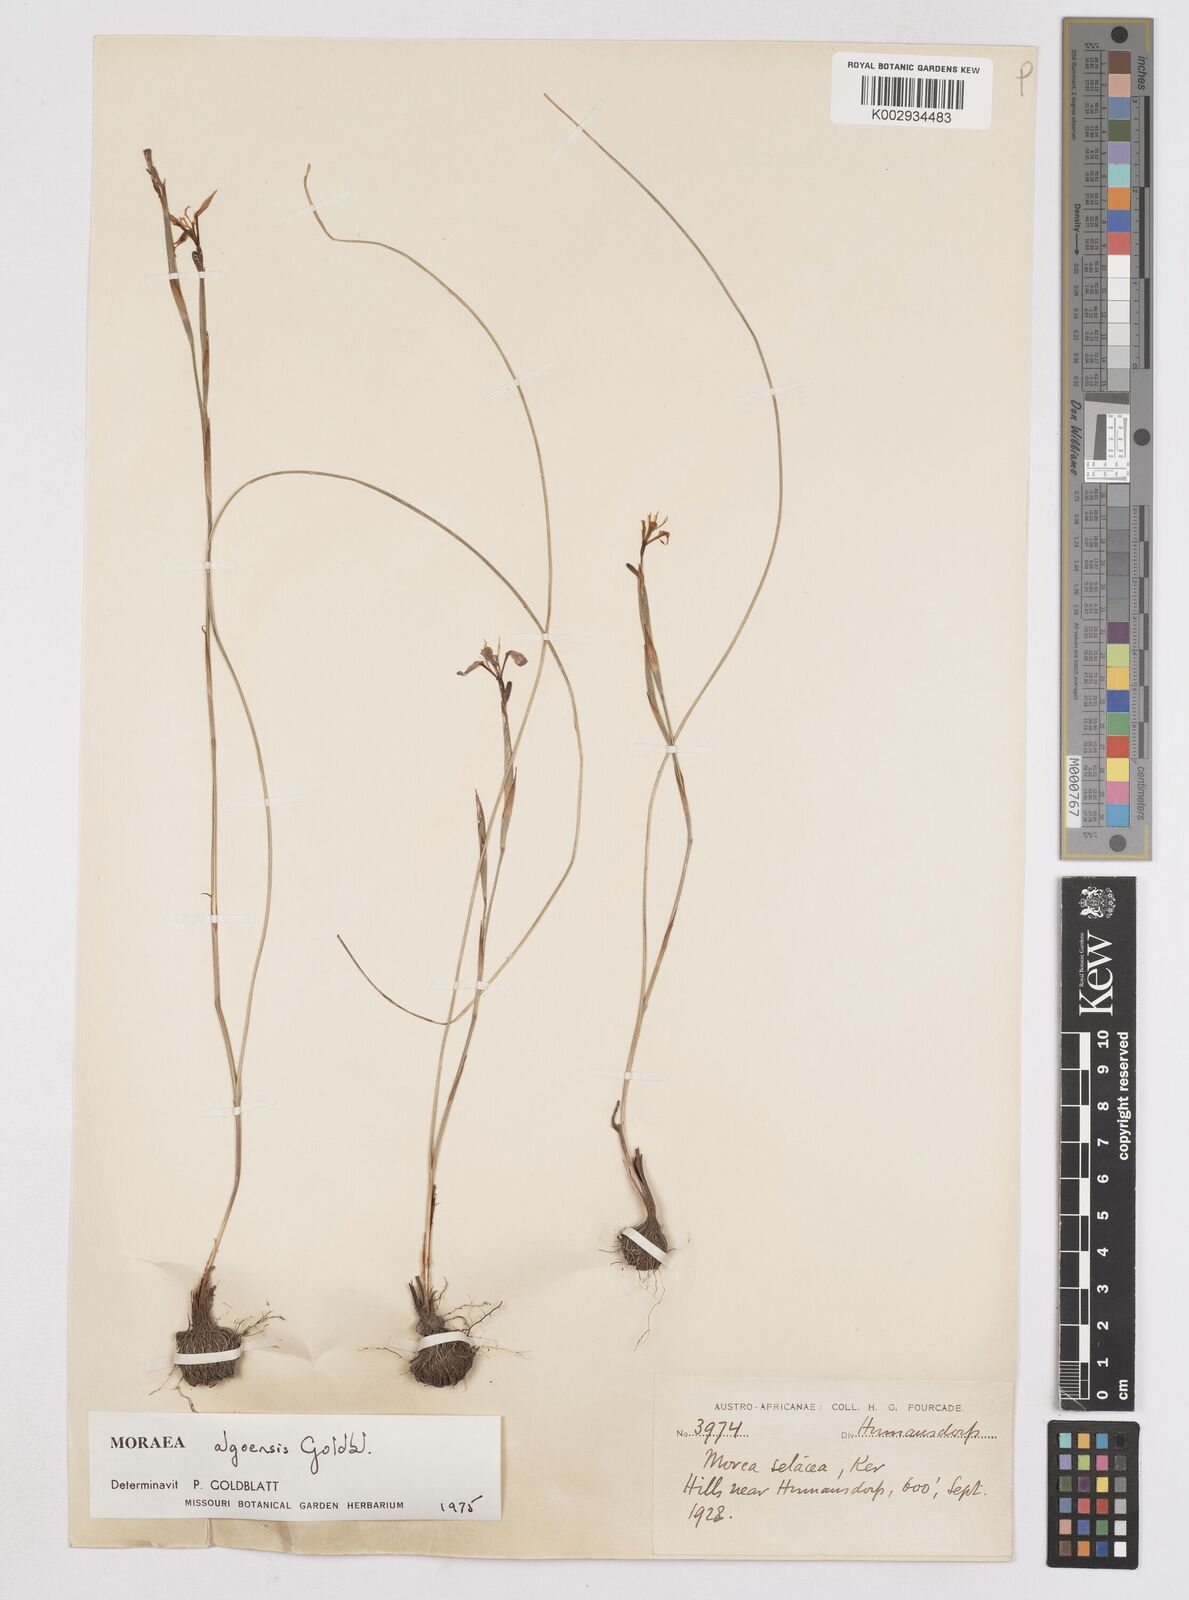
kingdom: Plantae
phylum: Tracheophyta
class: Liliopsida
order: Asparagales
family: Iridaceae
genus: Moraea
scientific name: Moraea algoensis
